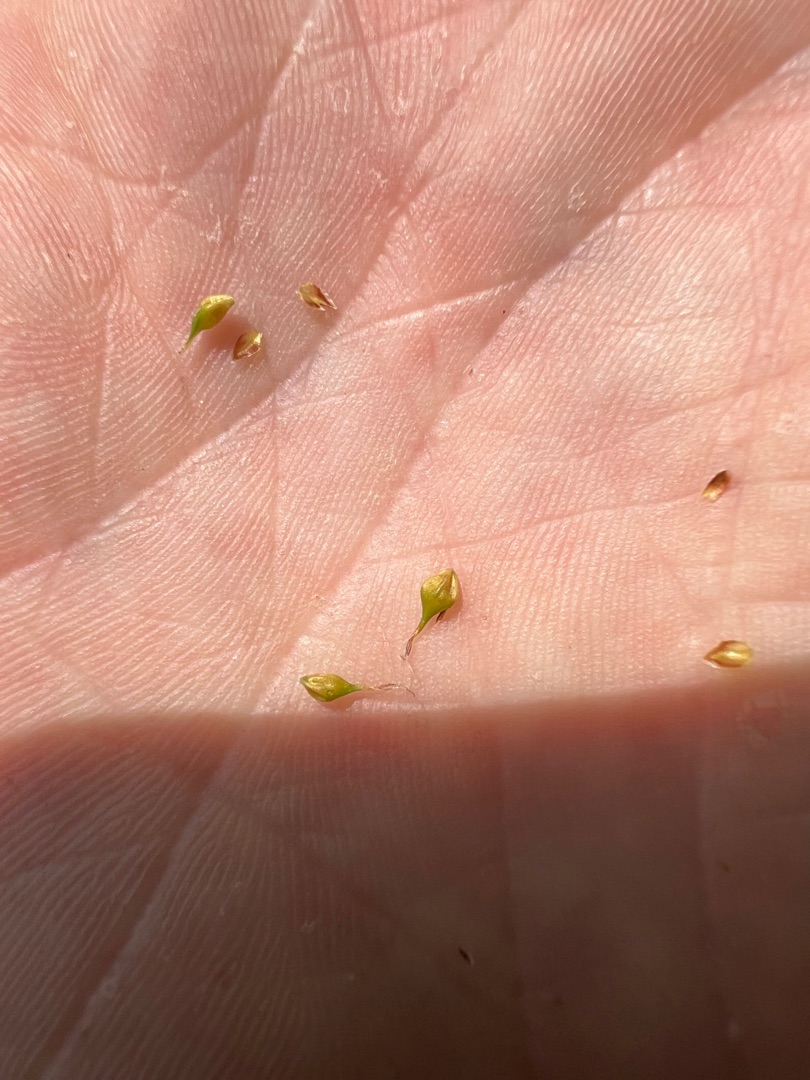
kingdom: Plantae
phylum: Tracheophyta
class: Liliopsida
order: Poales
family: Cyperaceae
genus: Carex
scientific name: Carex lepidocarpa
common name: Krognæb-star
